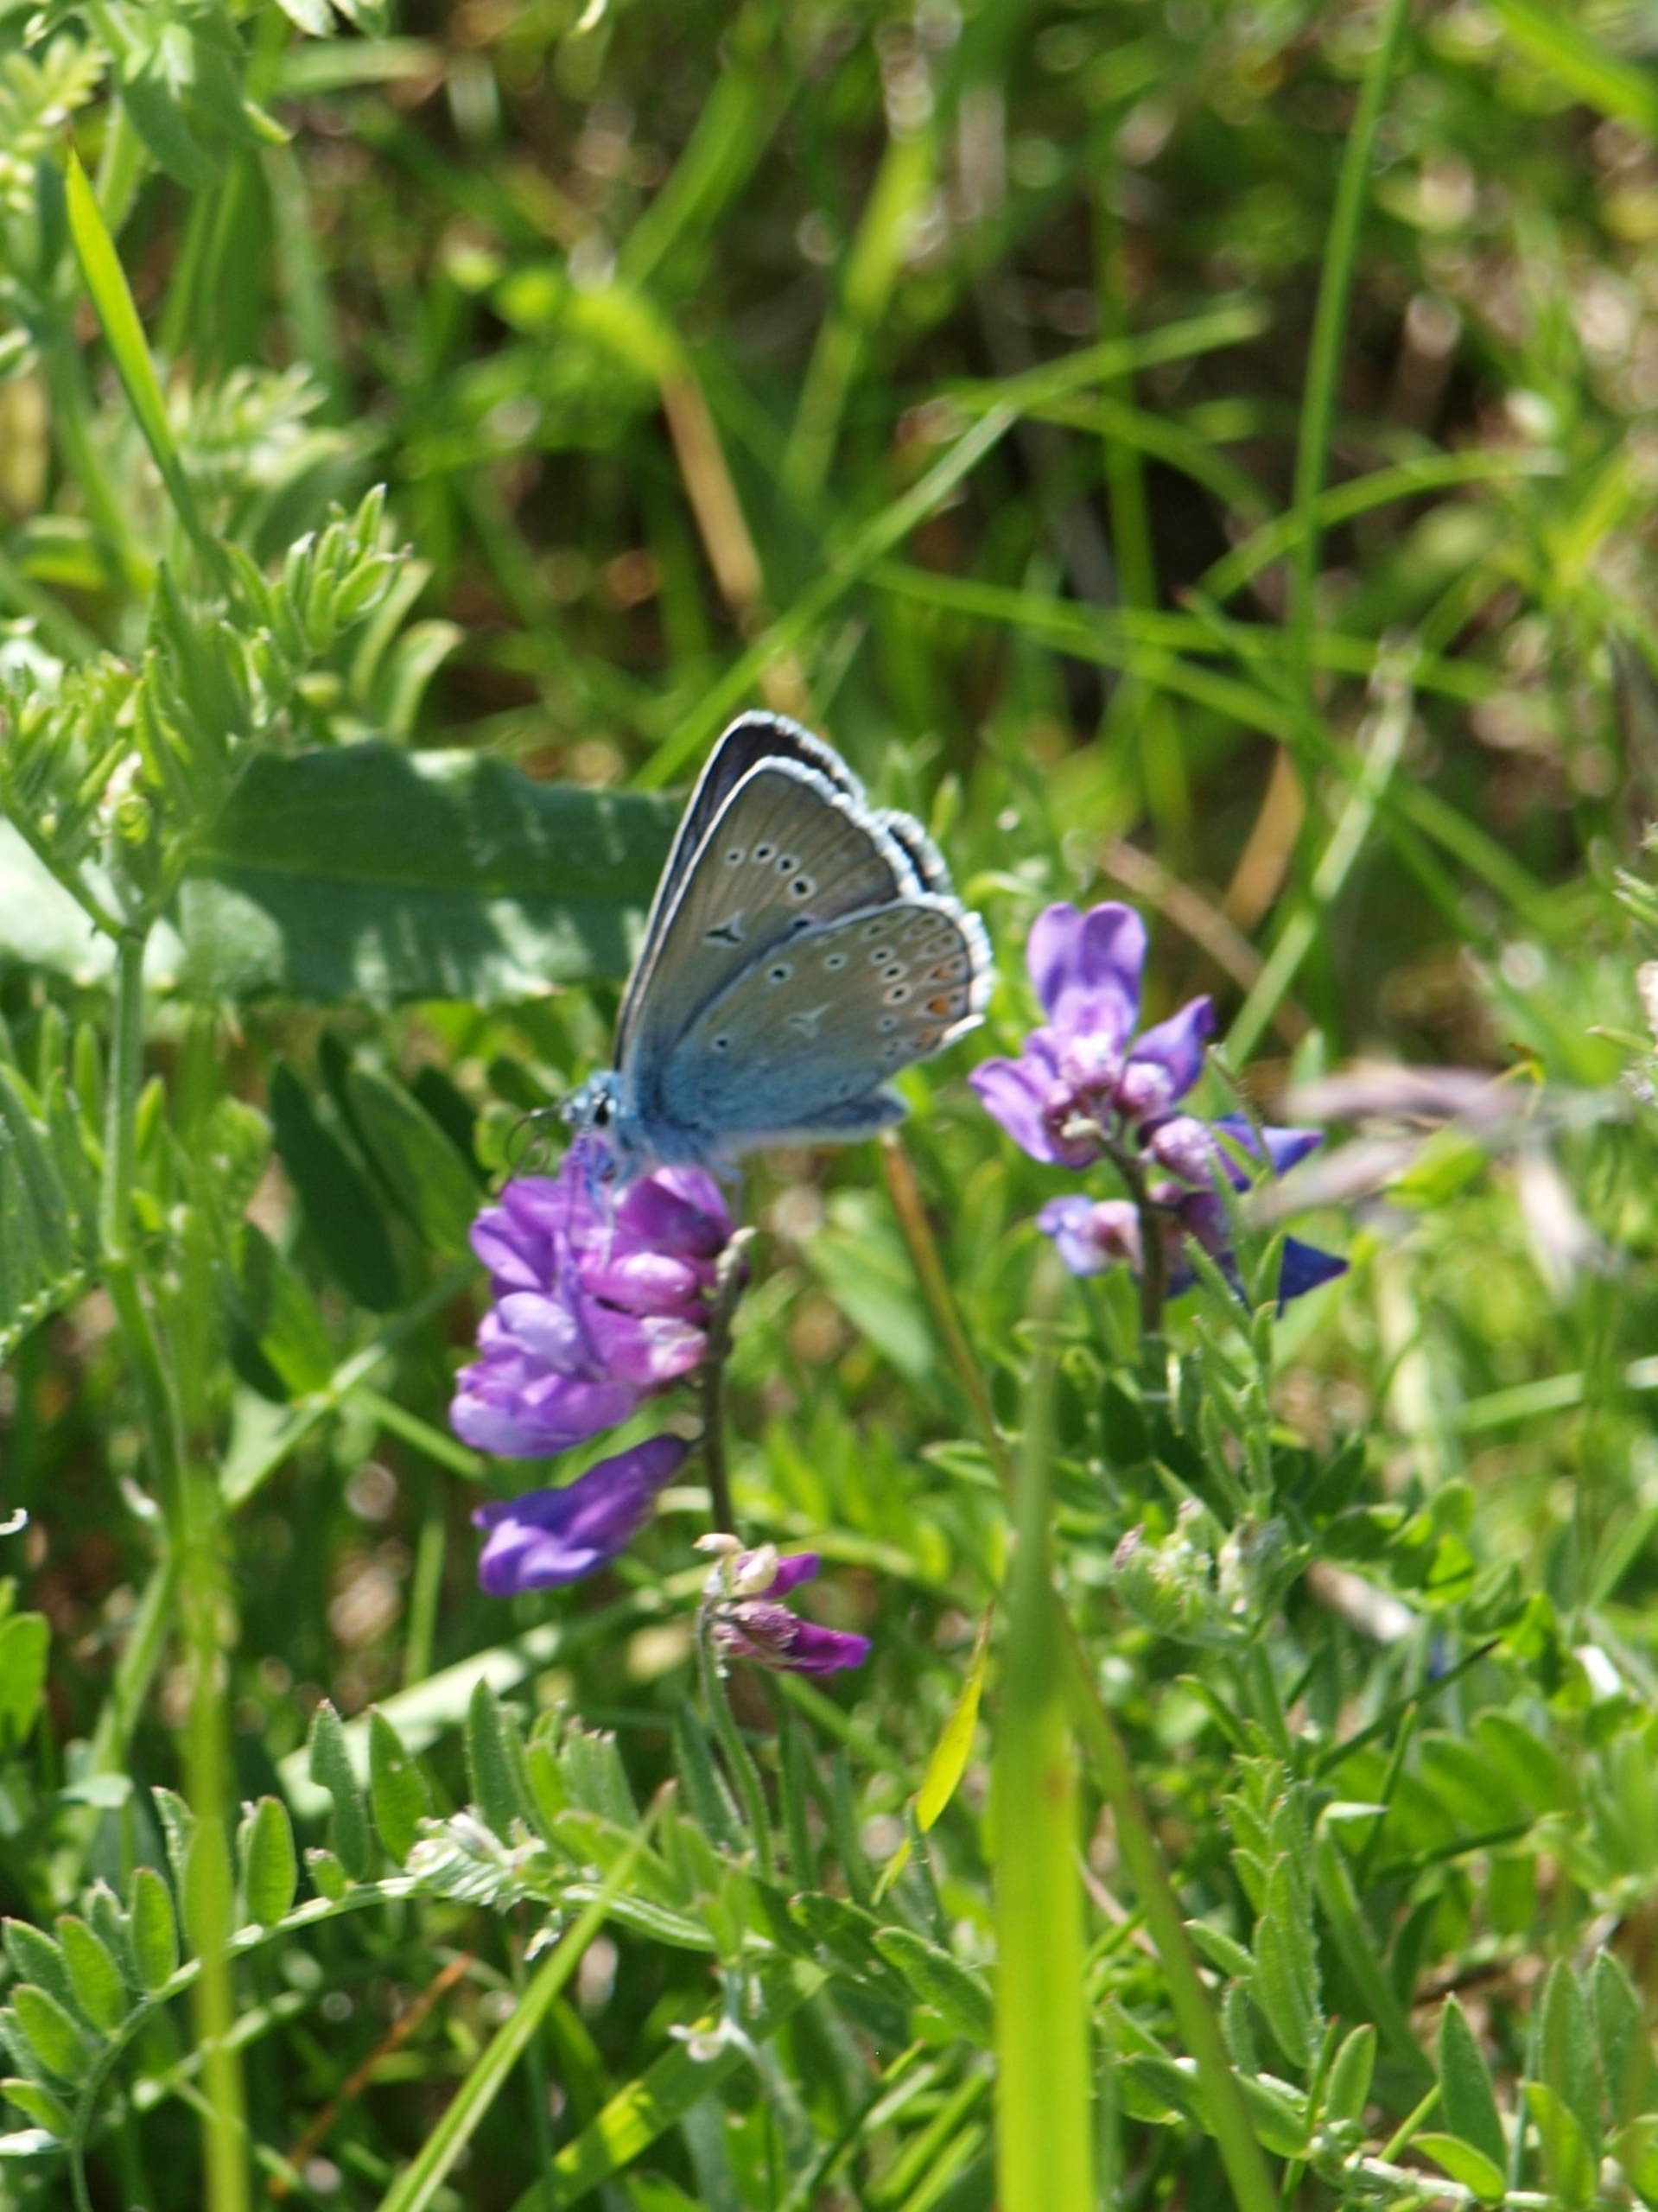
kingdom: Animalia
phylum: Arthropoda
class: Insecta
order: Lepidoptera
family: Lycaenidae
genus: Plebejus
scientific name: Plebejus amanda
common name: Isblåfugl
